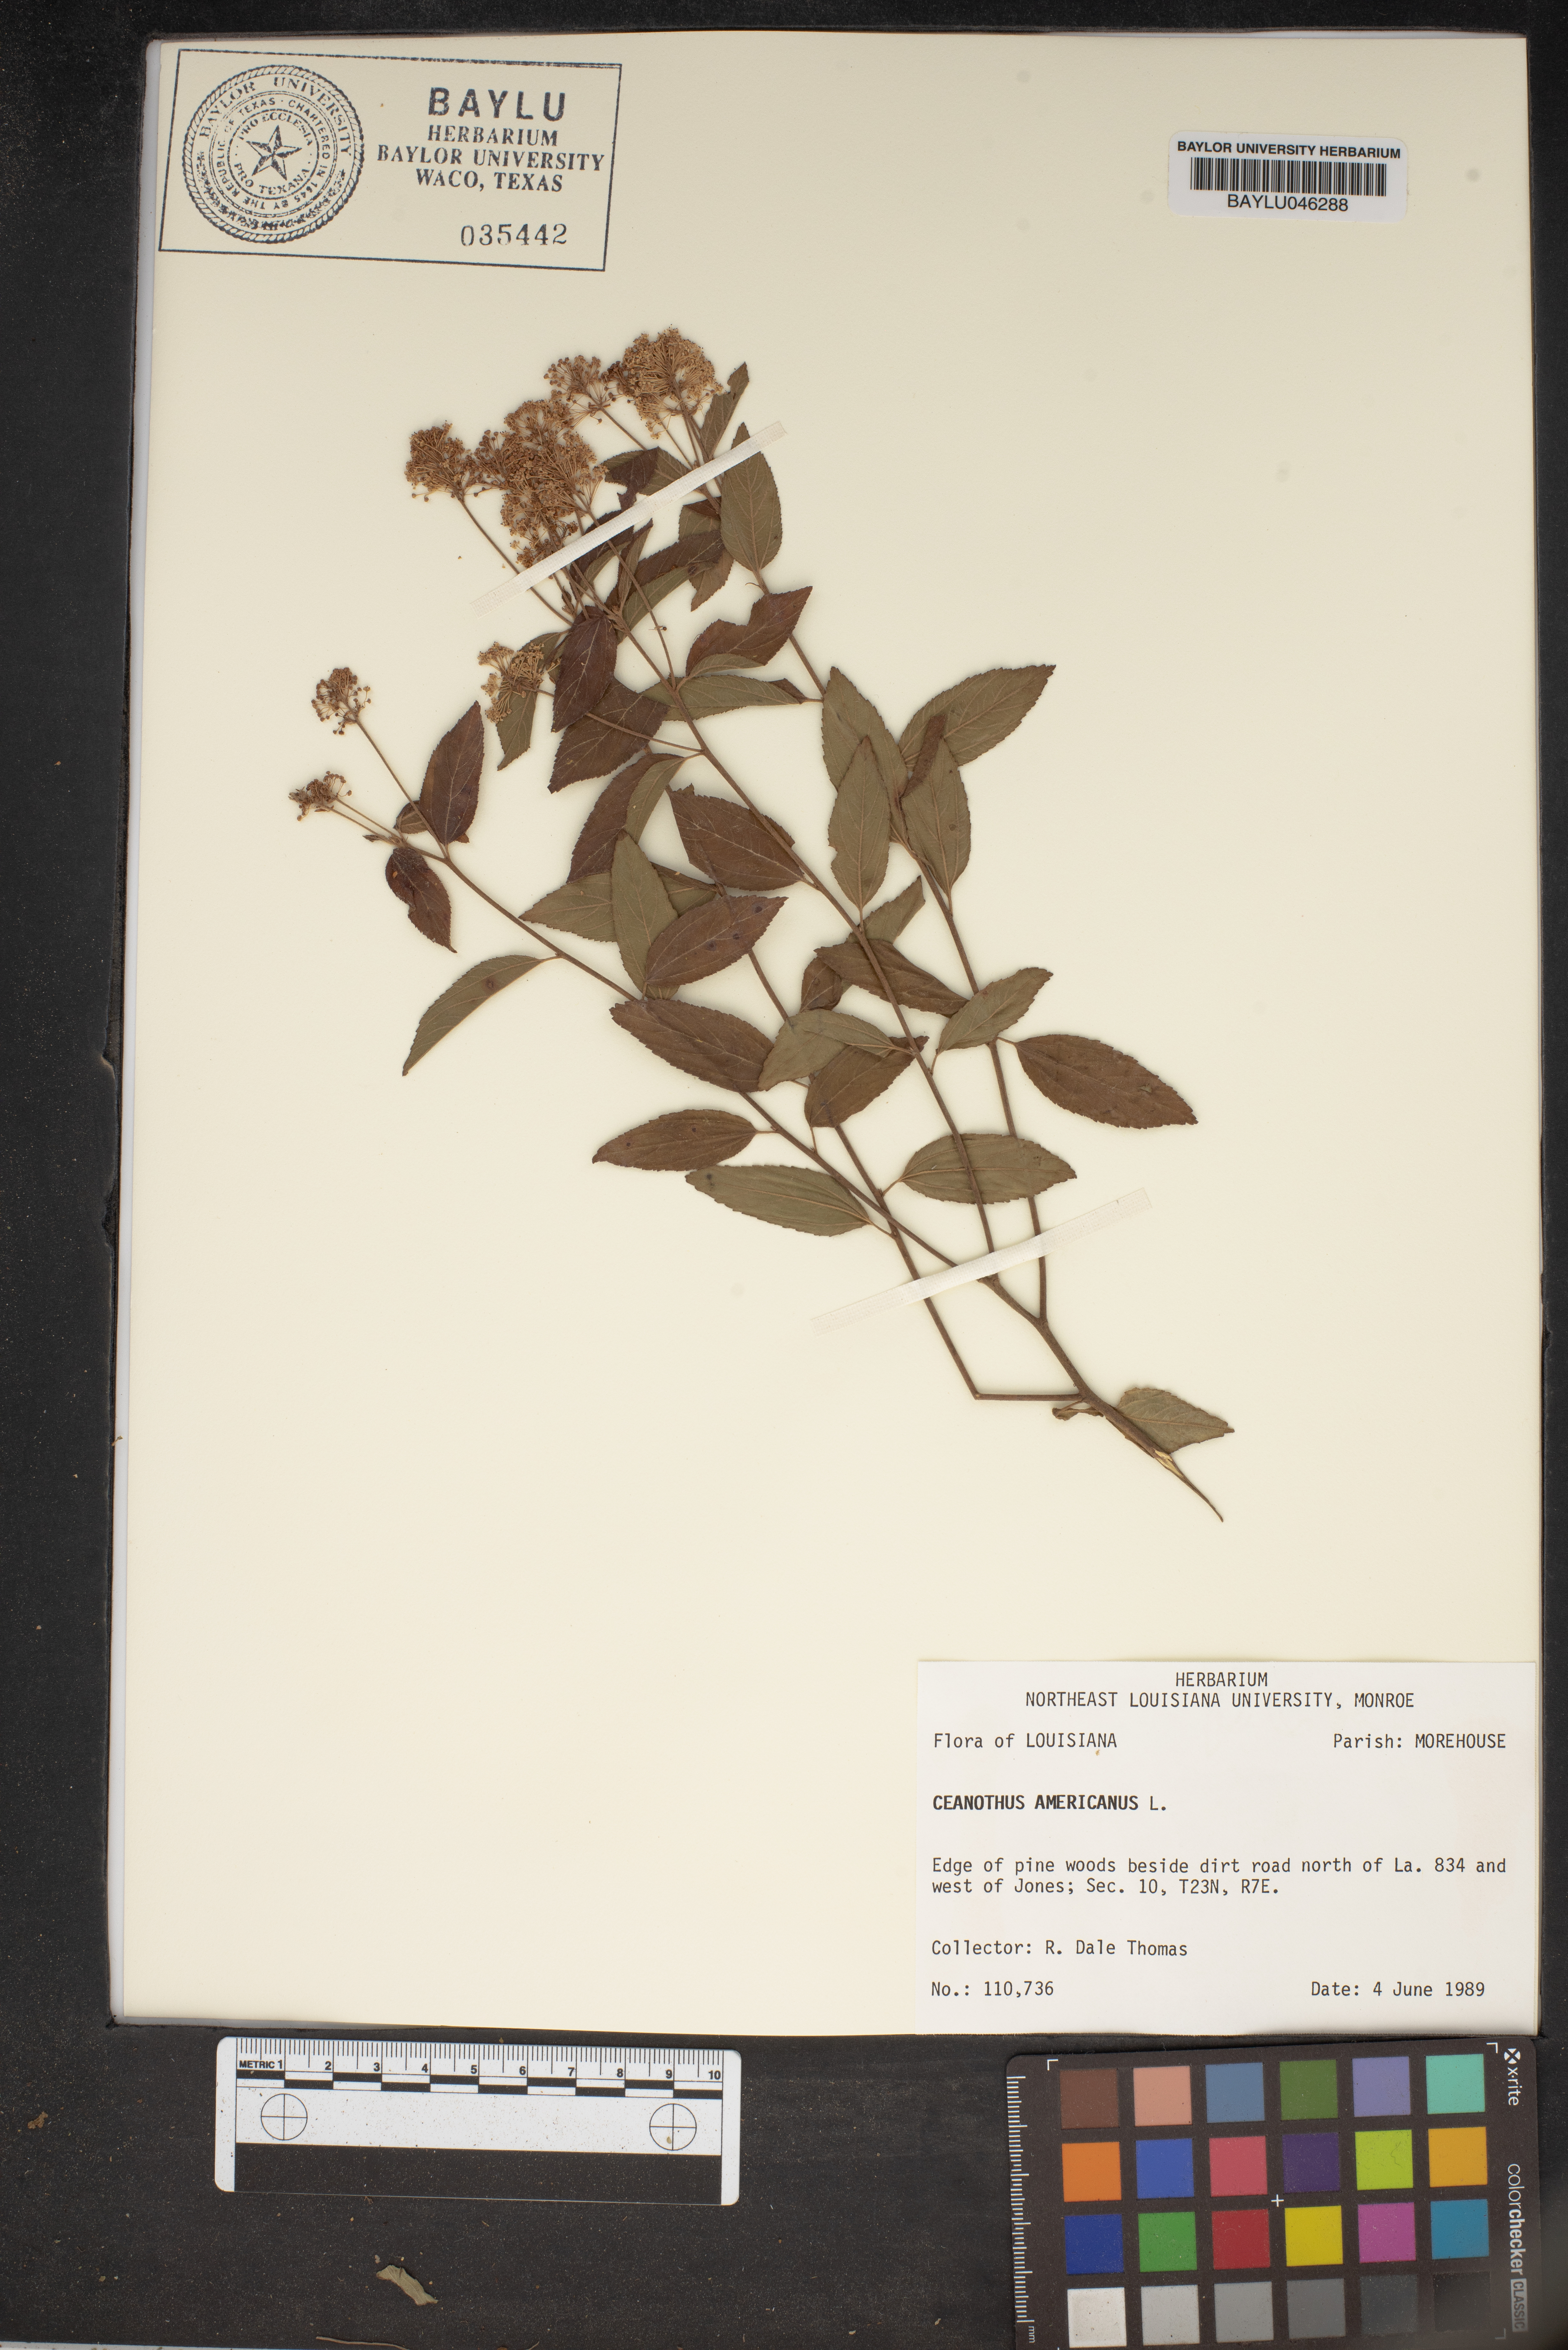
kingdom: Plantae
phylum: Tracheophyta
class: Magnoliopsida
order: Rosales
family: Rhamnaceae
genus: Ceanothus
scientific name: Ceanothus americanus
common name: Redroot
